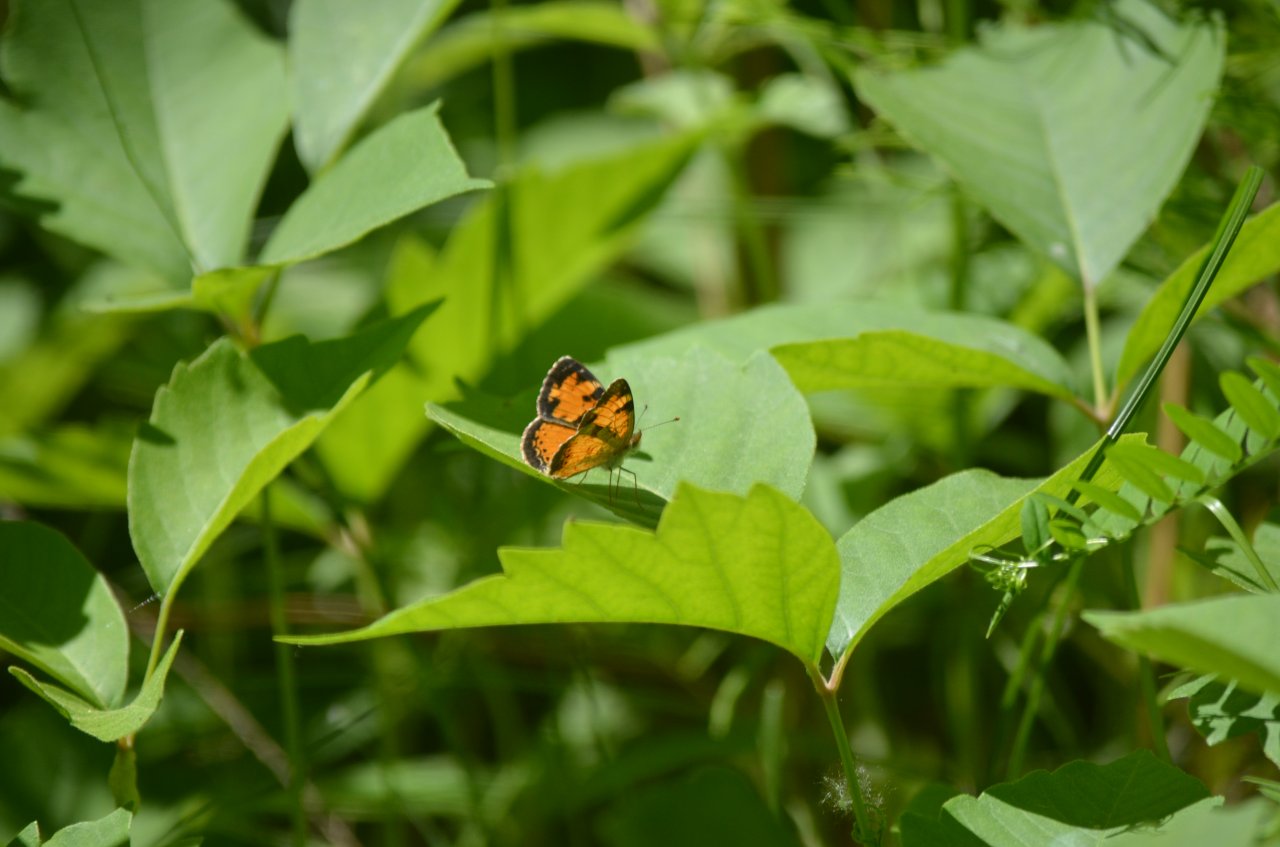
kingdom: Animalia
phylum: Arthropoda
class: Insecta
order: Lepidoptera
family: Nymphalidae
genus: Phyciodes
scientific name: Phyciodes tharos
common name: Northern Crescent
